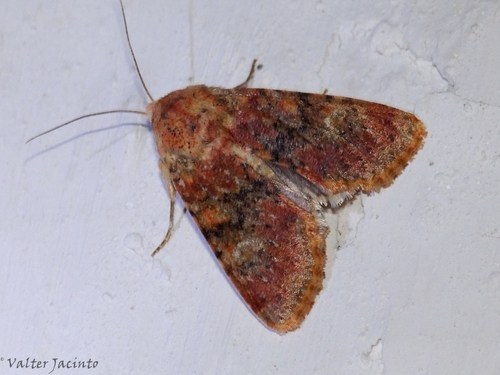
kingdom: Animalia
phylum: Arthropoda
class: Insecta
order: Lepidoptera
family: Noctuidae
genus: Polymixis
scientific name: Polymixis argillaceago
